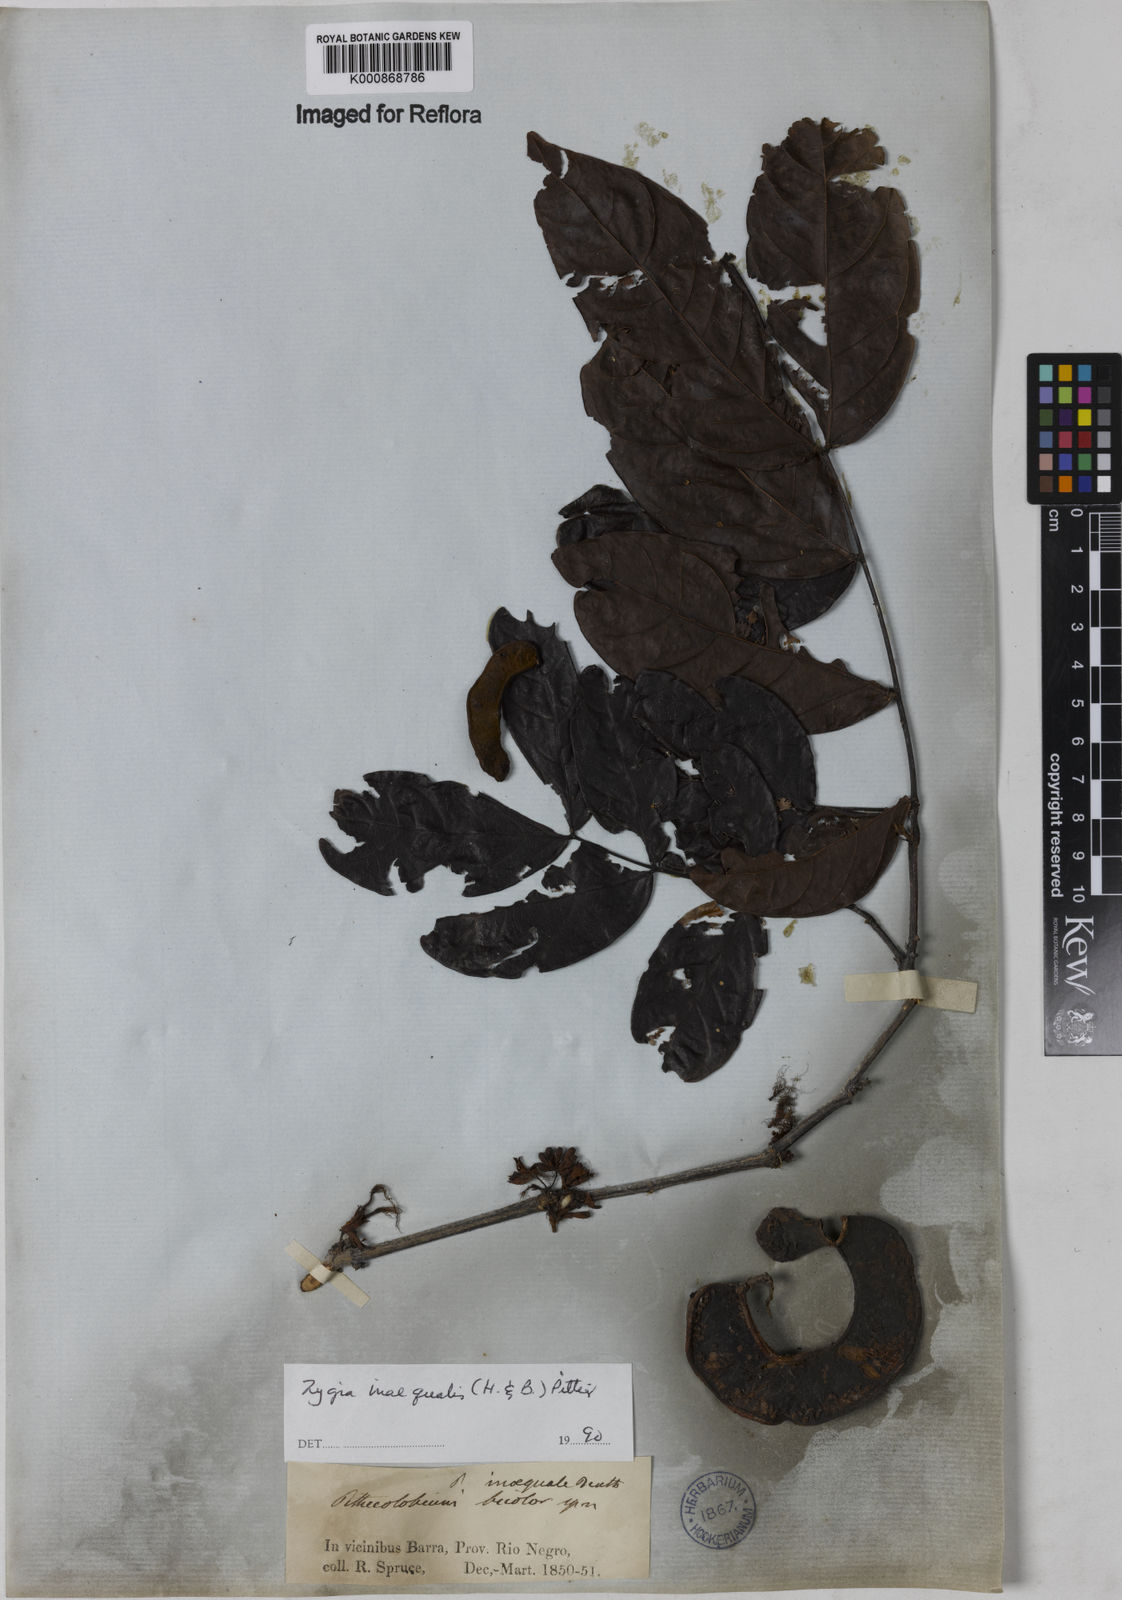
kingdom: Plantae
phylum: Tracheophyta
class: Magnoliopsida
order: Fabales
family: Fabaceae
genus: Zygia
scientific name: Zygia inaequalis
